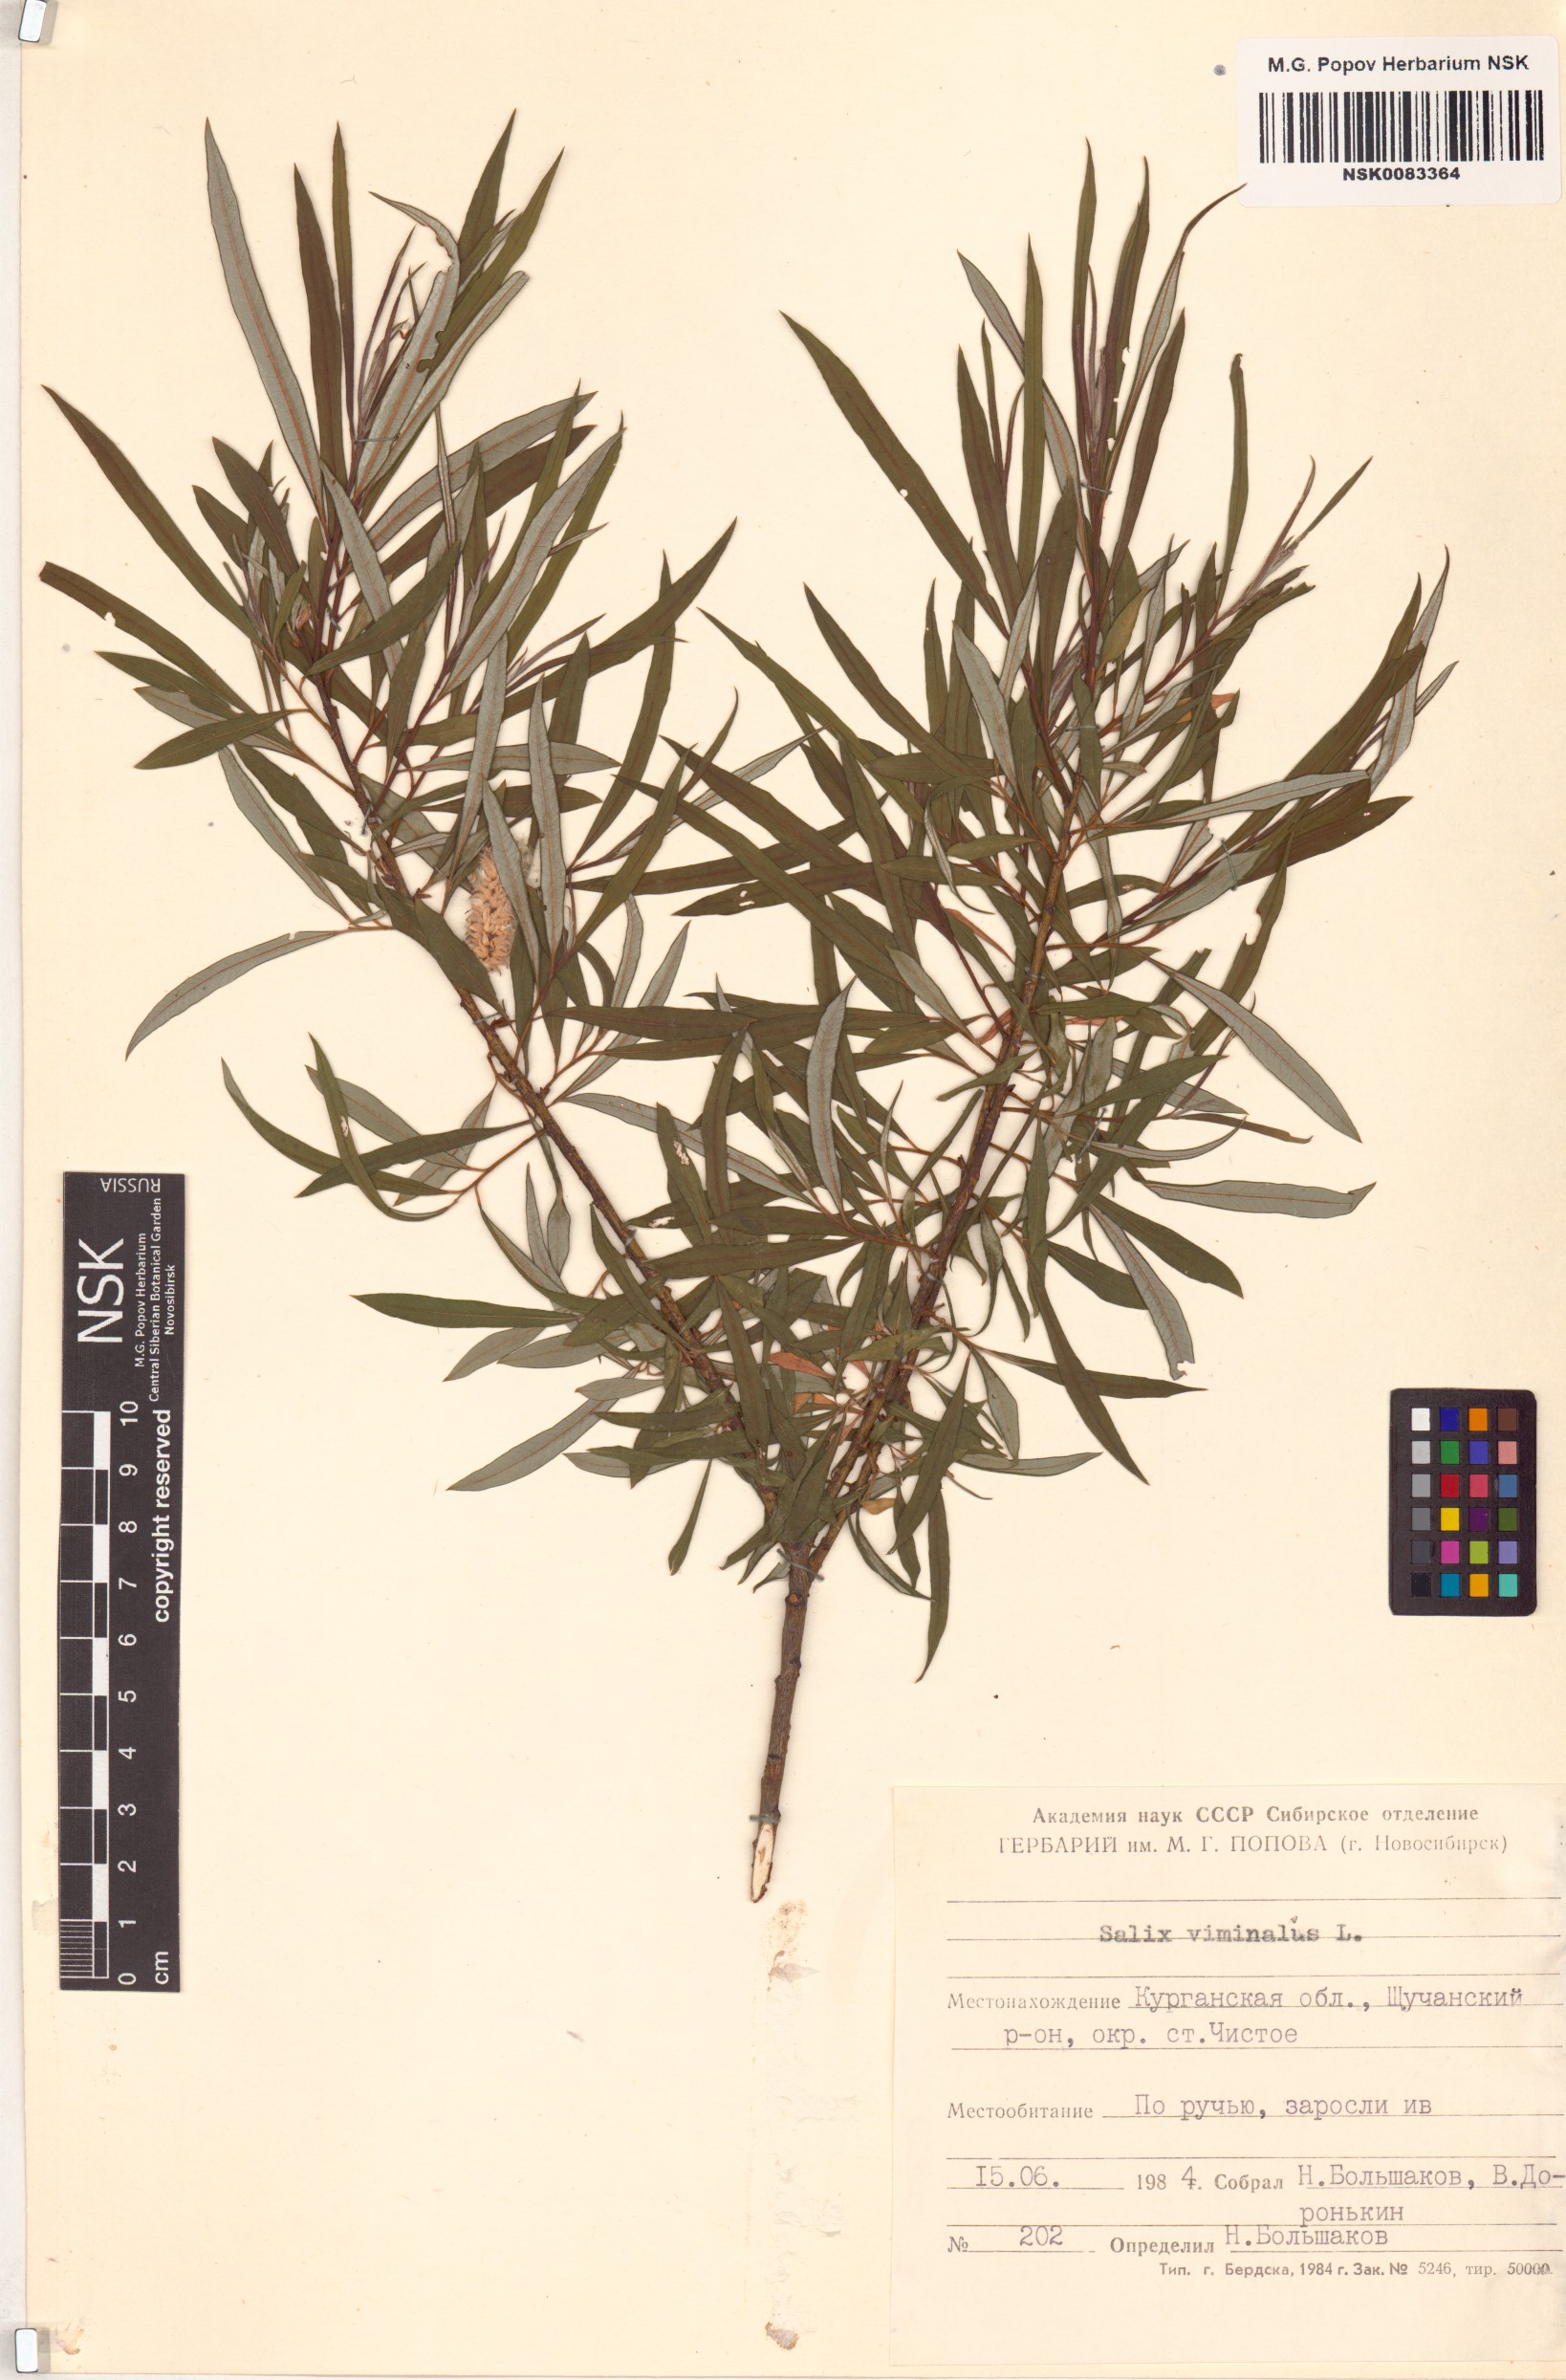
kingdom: Plantae
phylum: Tracheophyta
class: Magnoliopsida
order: Malpighiales
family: Salicaceae
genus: Salix
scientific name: Salix viminalis
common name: Osier
